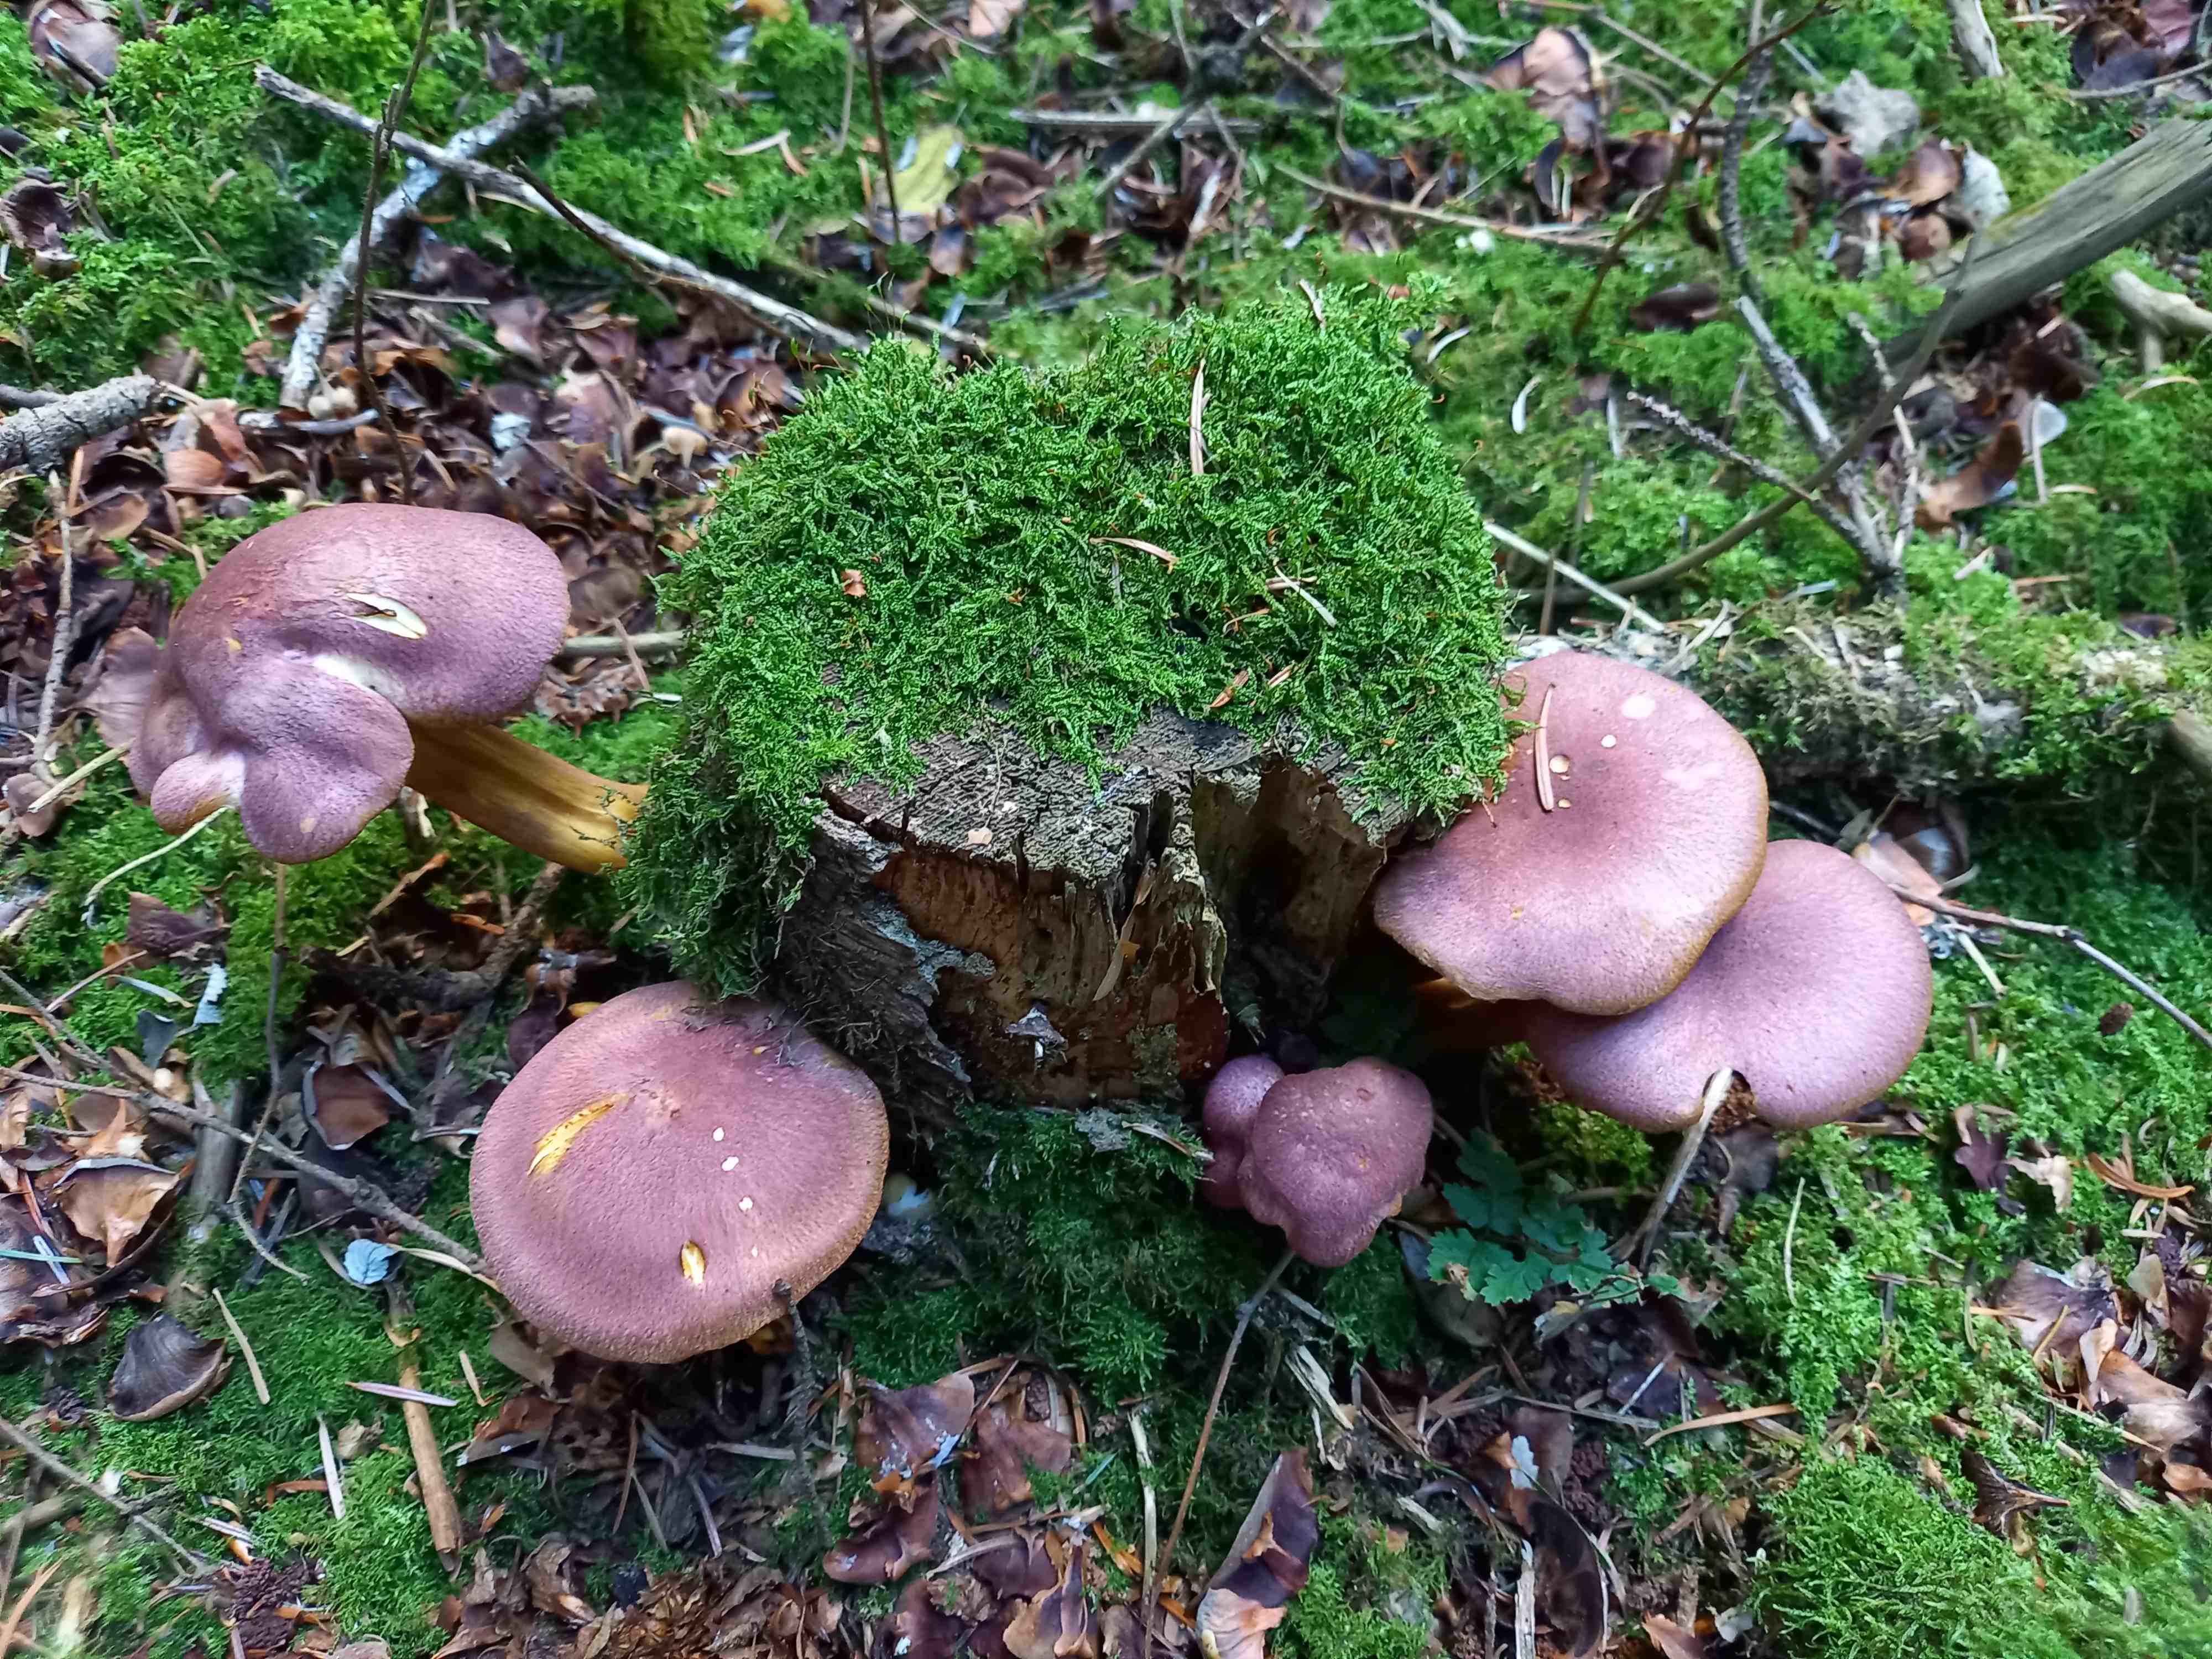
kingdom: Fungi
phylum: Basidiomycota
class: Agaricomycetes
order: Agaricales
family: Tricholomataceae
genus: Tricholomopsis
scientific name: Tricholomopsis rutilans
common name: purpur-væbnerhat
